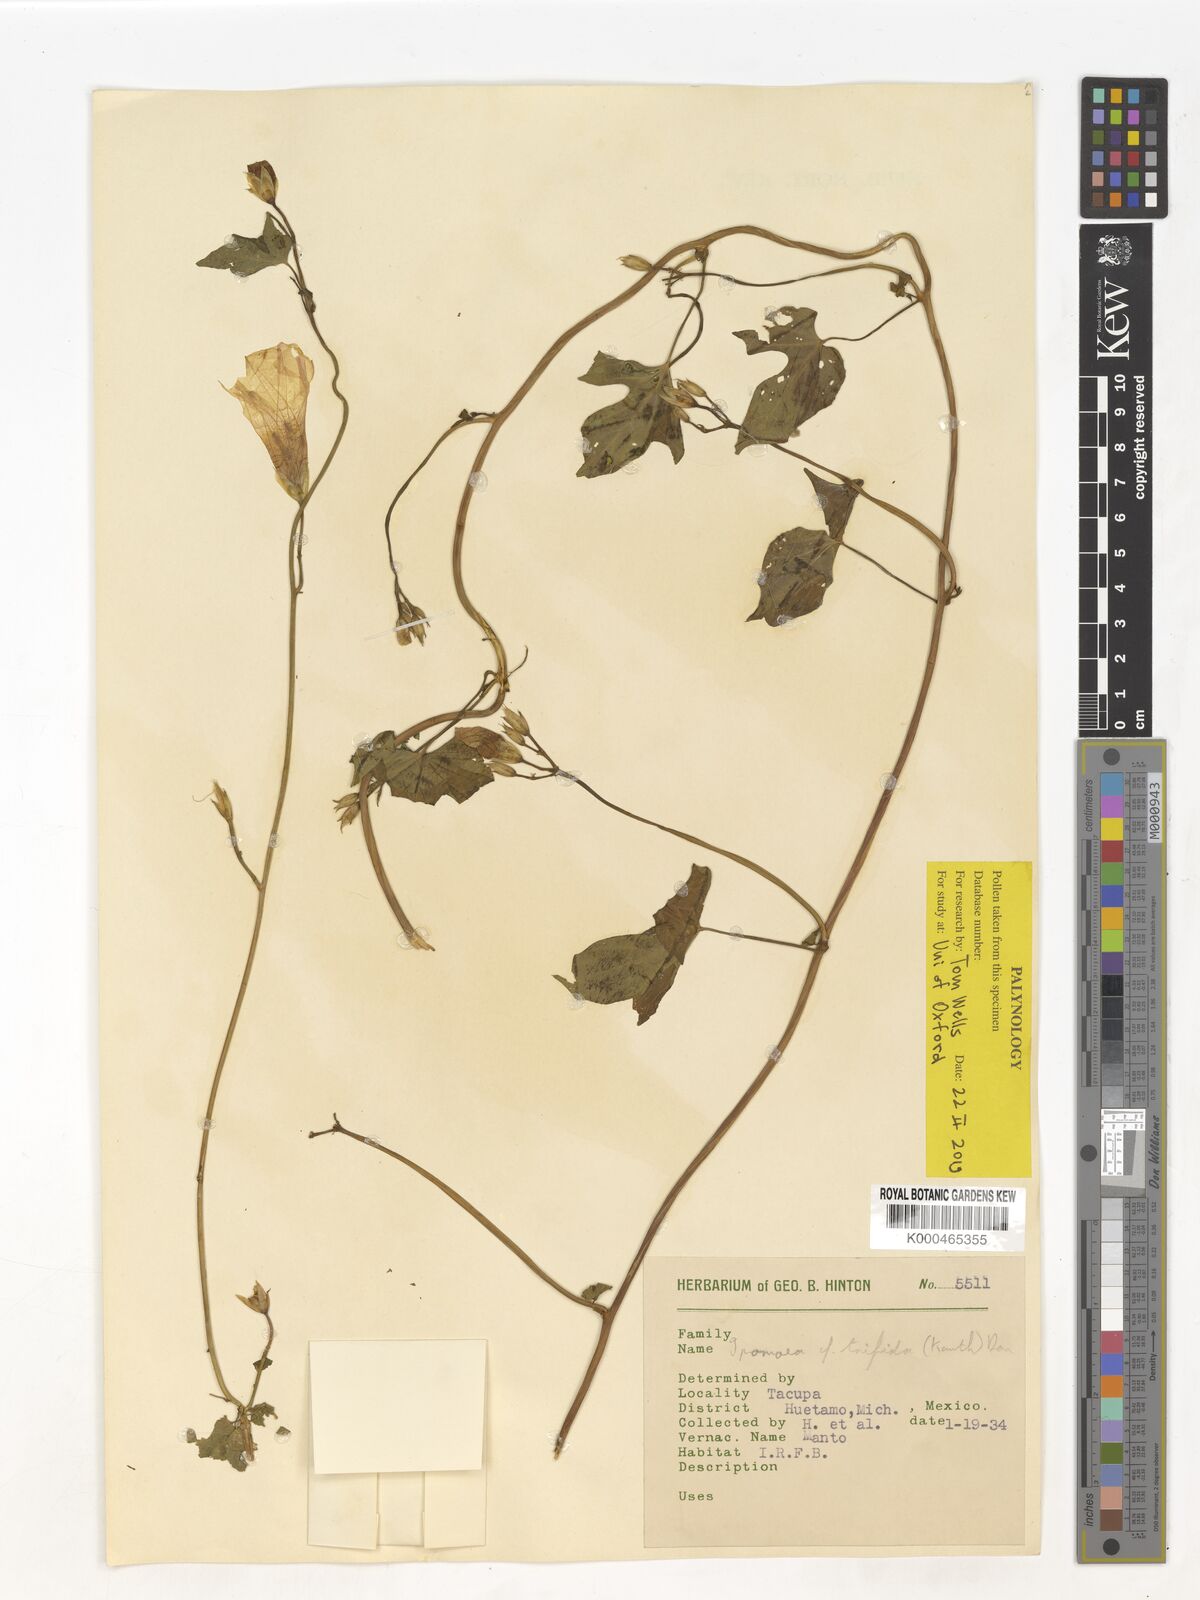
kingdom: Plantae
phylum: Tracheophyta
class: Magnoliopsida
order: Solanales
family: Convolvulaceae
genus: Ipomoea
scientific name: Ipomoea trifida
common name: Cotton morningglory
